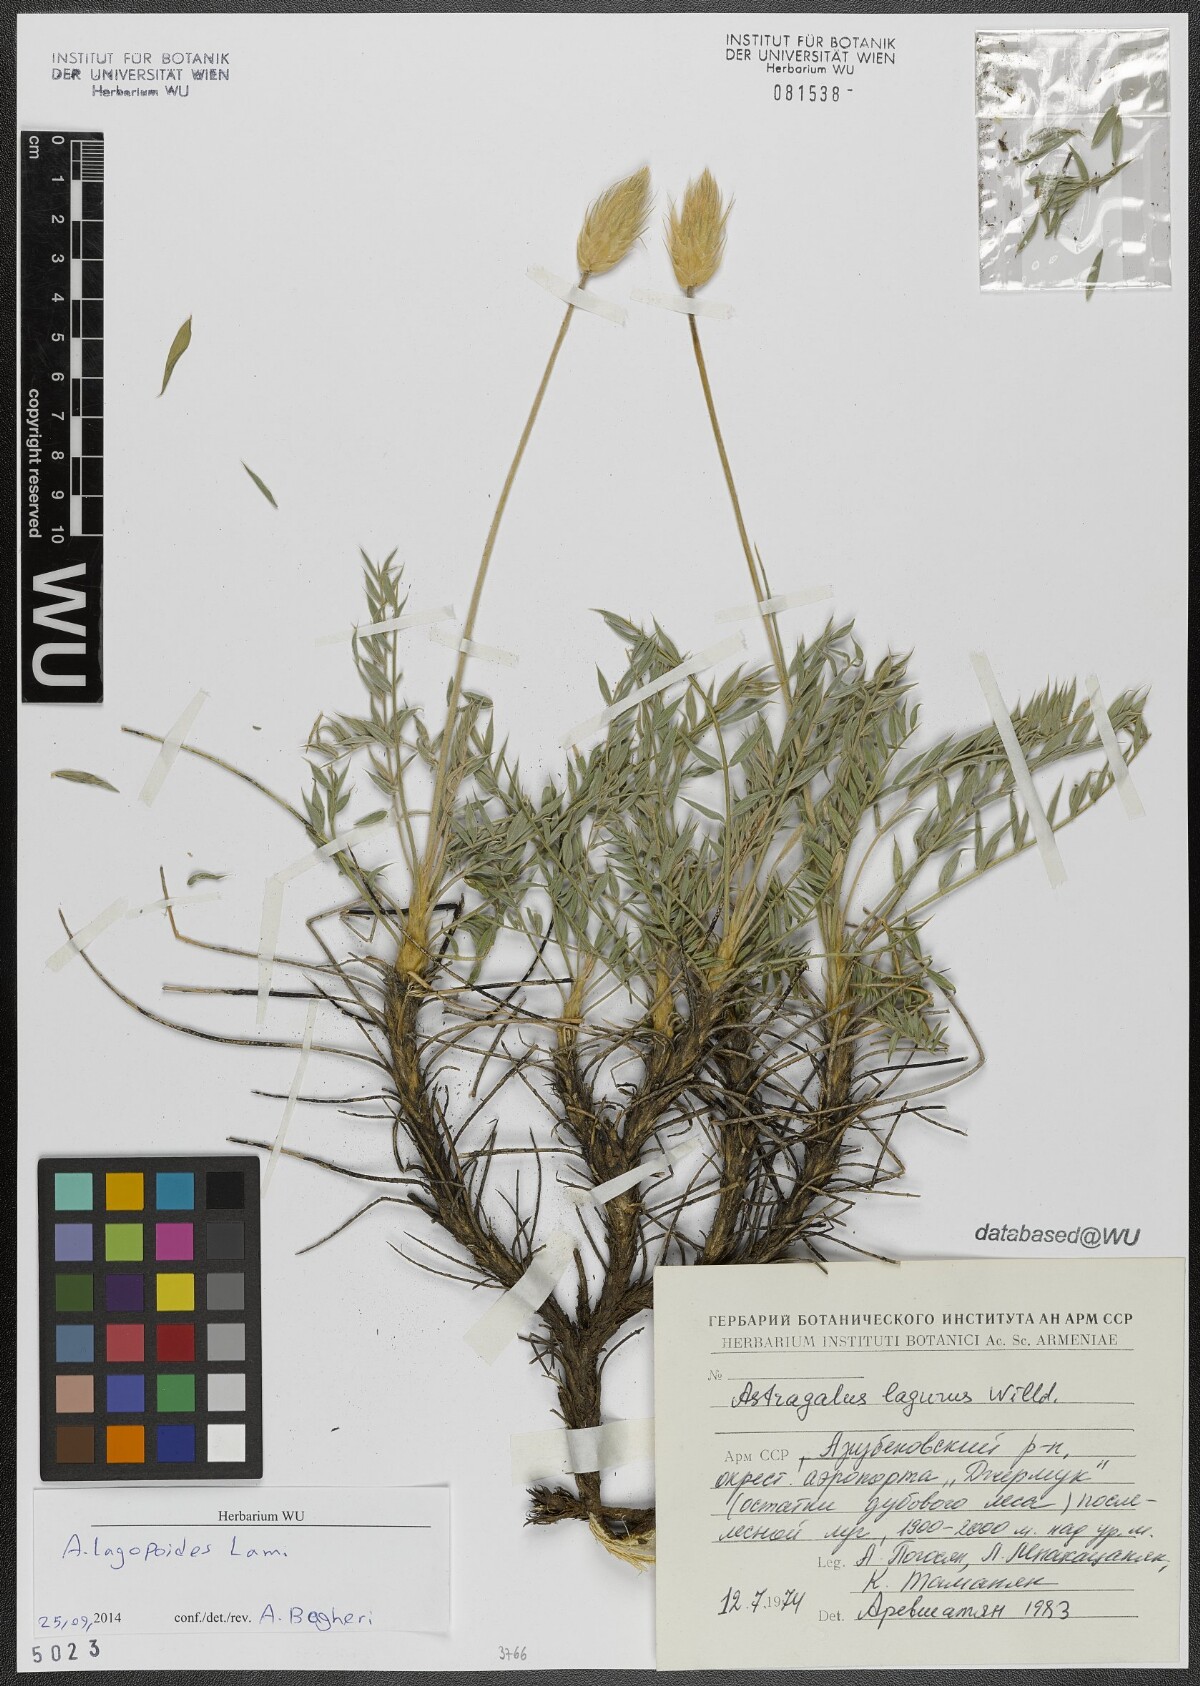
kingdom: Plantae
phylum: Tracheophyta
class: Magnoliopsida
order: Fabales
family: Fabaceae
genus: Astragalus
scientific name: Astragalus lagopoides
